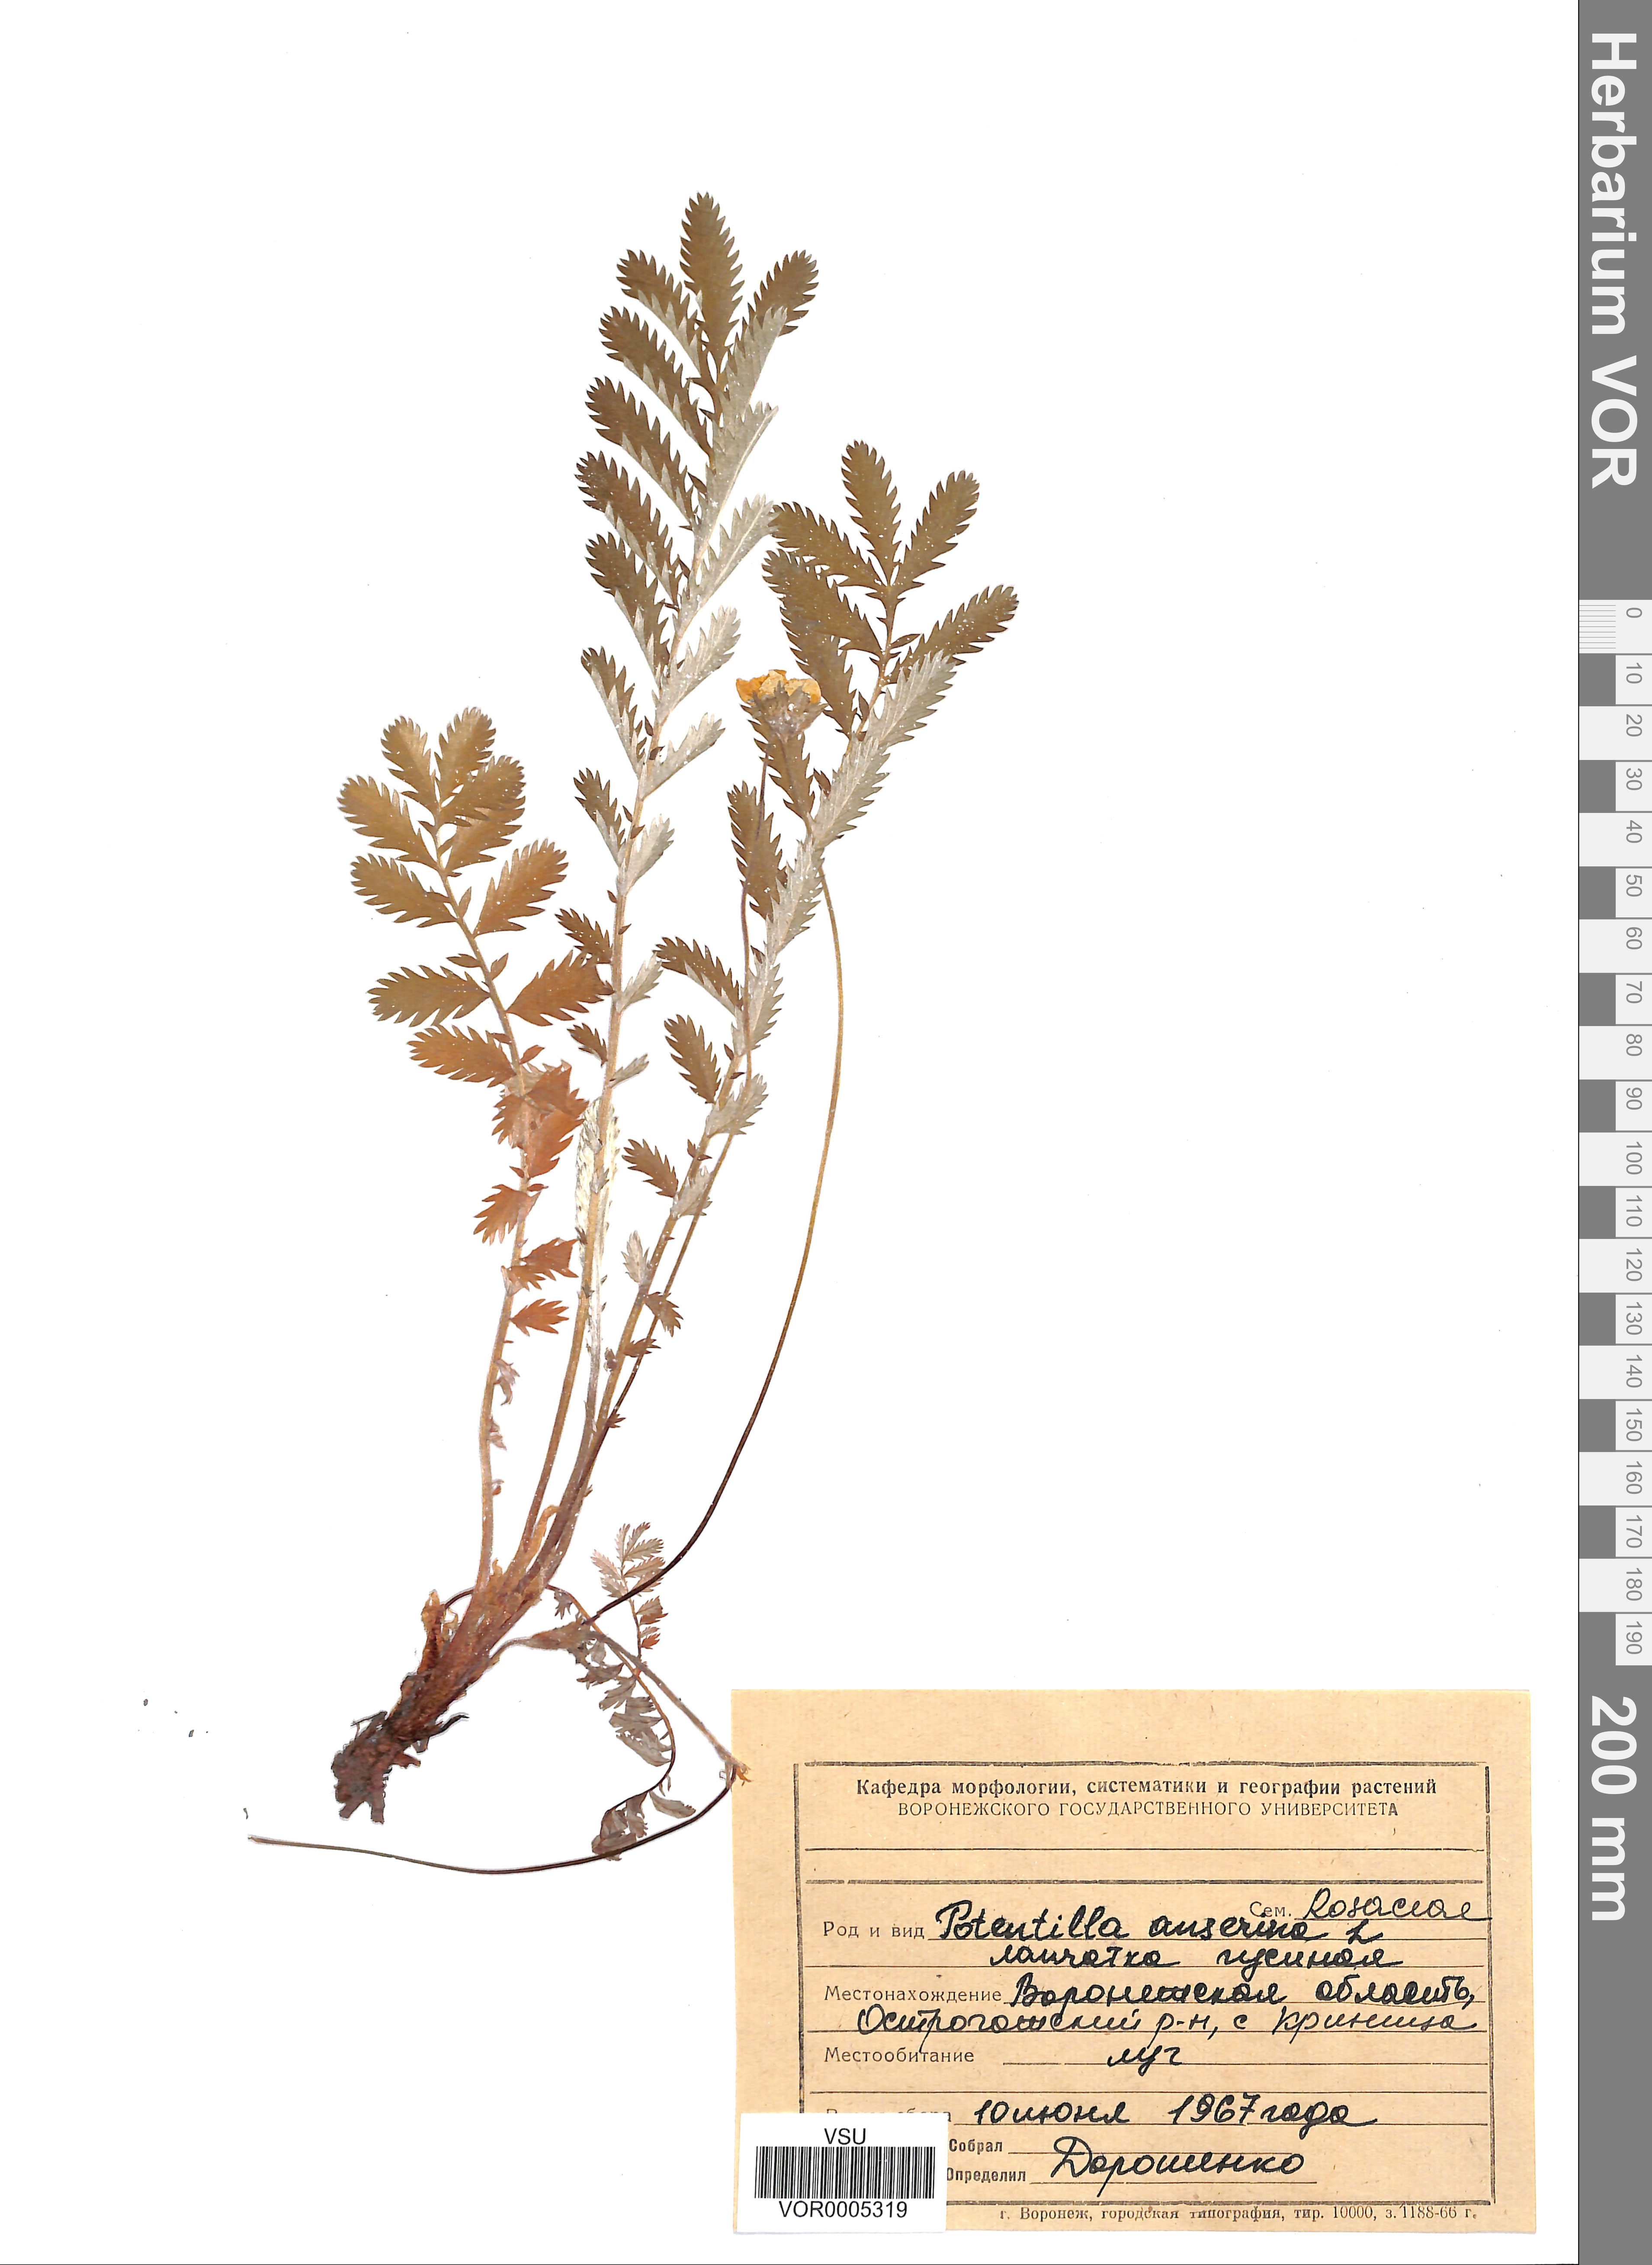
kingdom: Plantae
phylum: Tracheophyta
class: Magnoliopsida
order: Rosales
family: Rosaceae
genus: Argentina
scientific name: Argentina anserina
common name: Common silverweed
